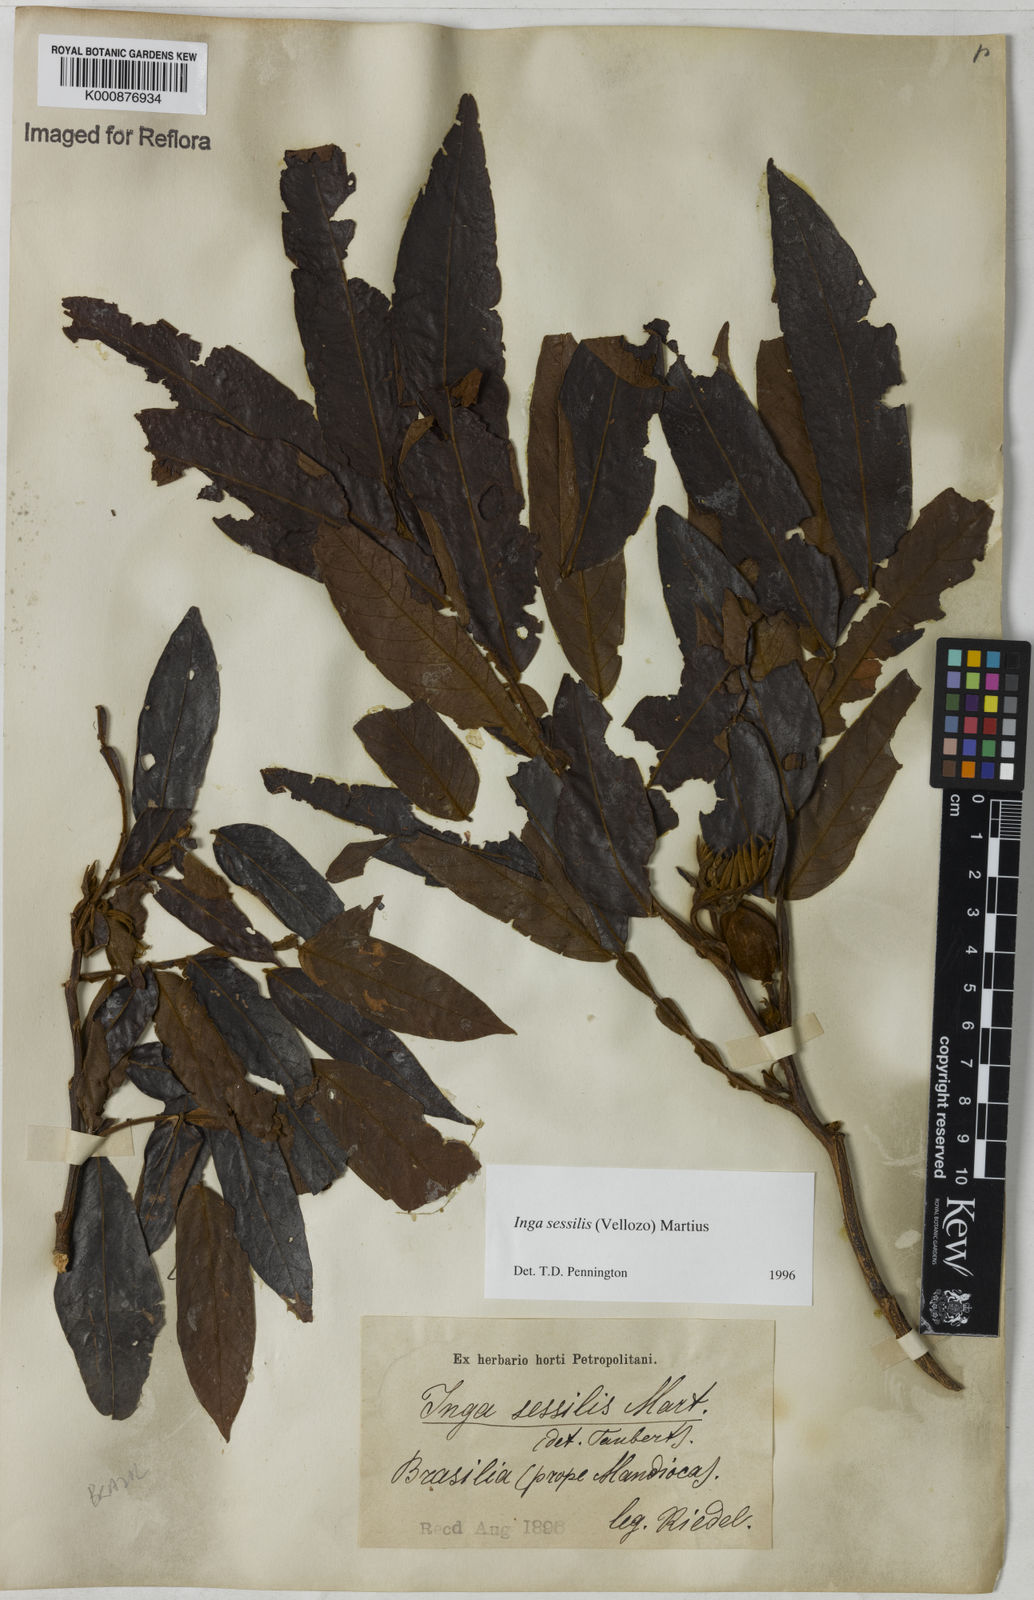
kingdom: Plantae
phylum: Tracheophyta
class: Magnoliopsida
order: Fabales
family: Fabaceae
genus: Inga
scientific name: Inga sessilis
